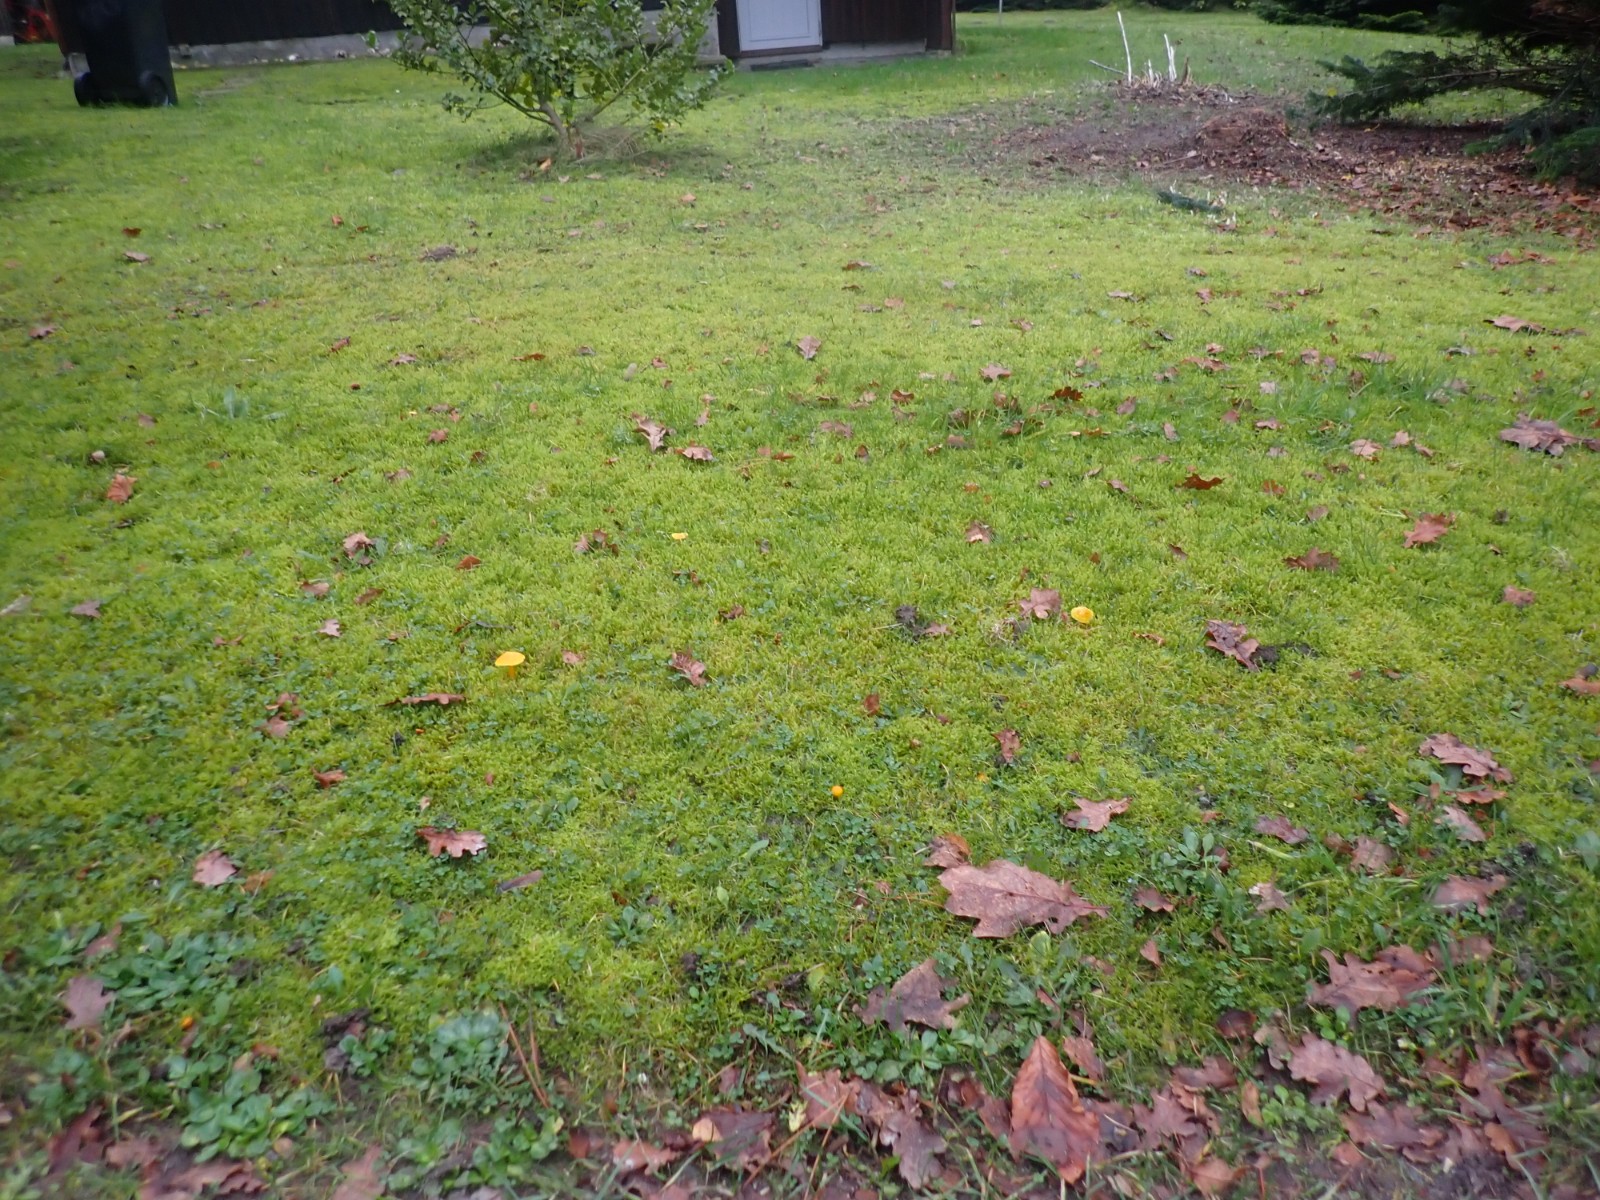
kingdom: Fungi
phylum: Basidiomycota
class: Agaricomycetes
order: Agaricales
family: Hygrophoraceae
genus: Hygrocybe
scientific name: Hygrocybe ceracea
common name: voksgul vokshat
